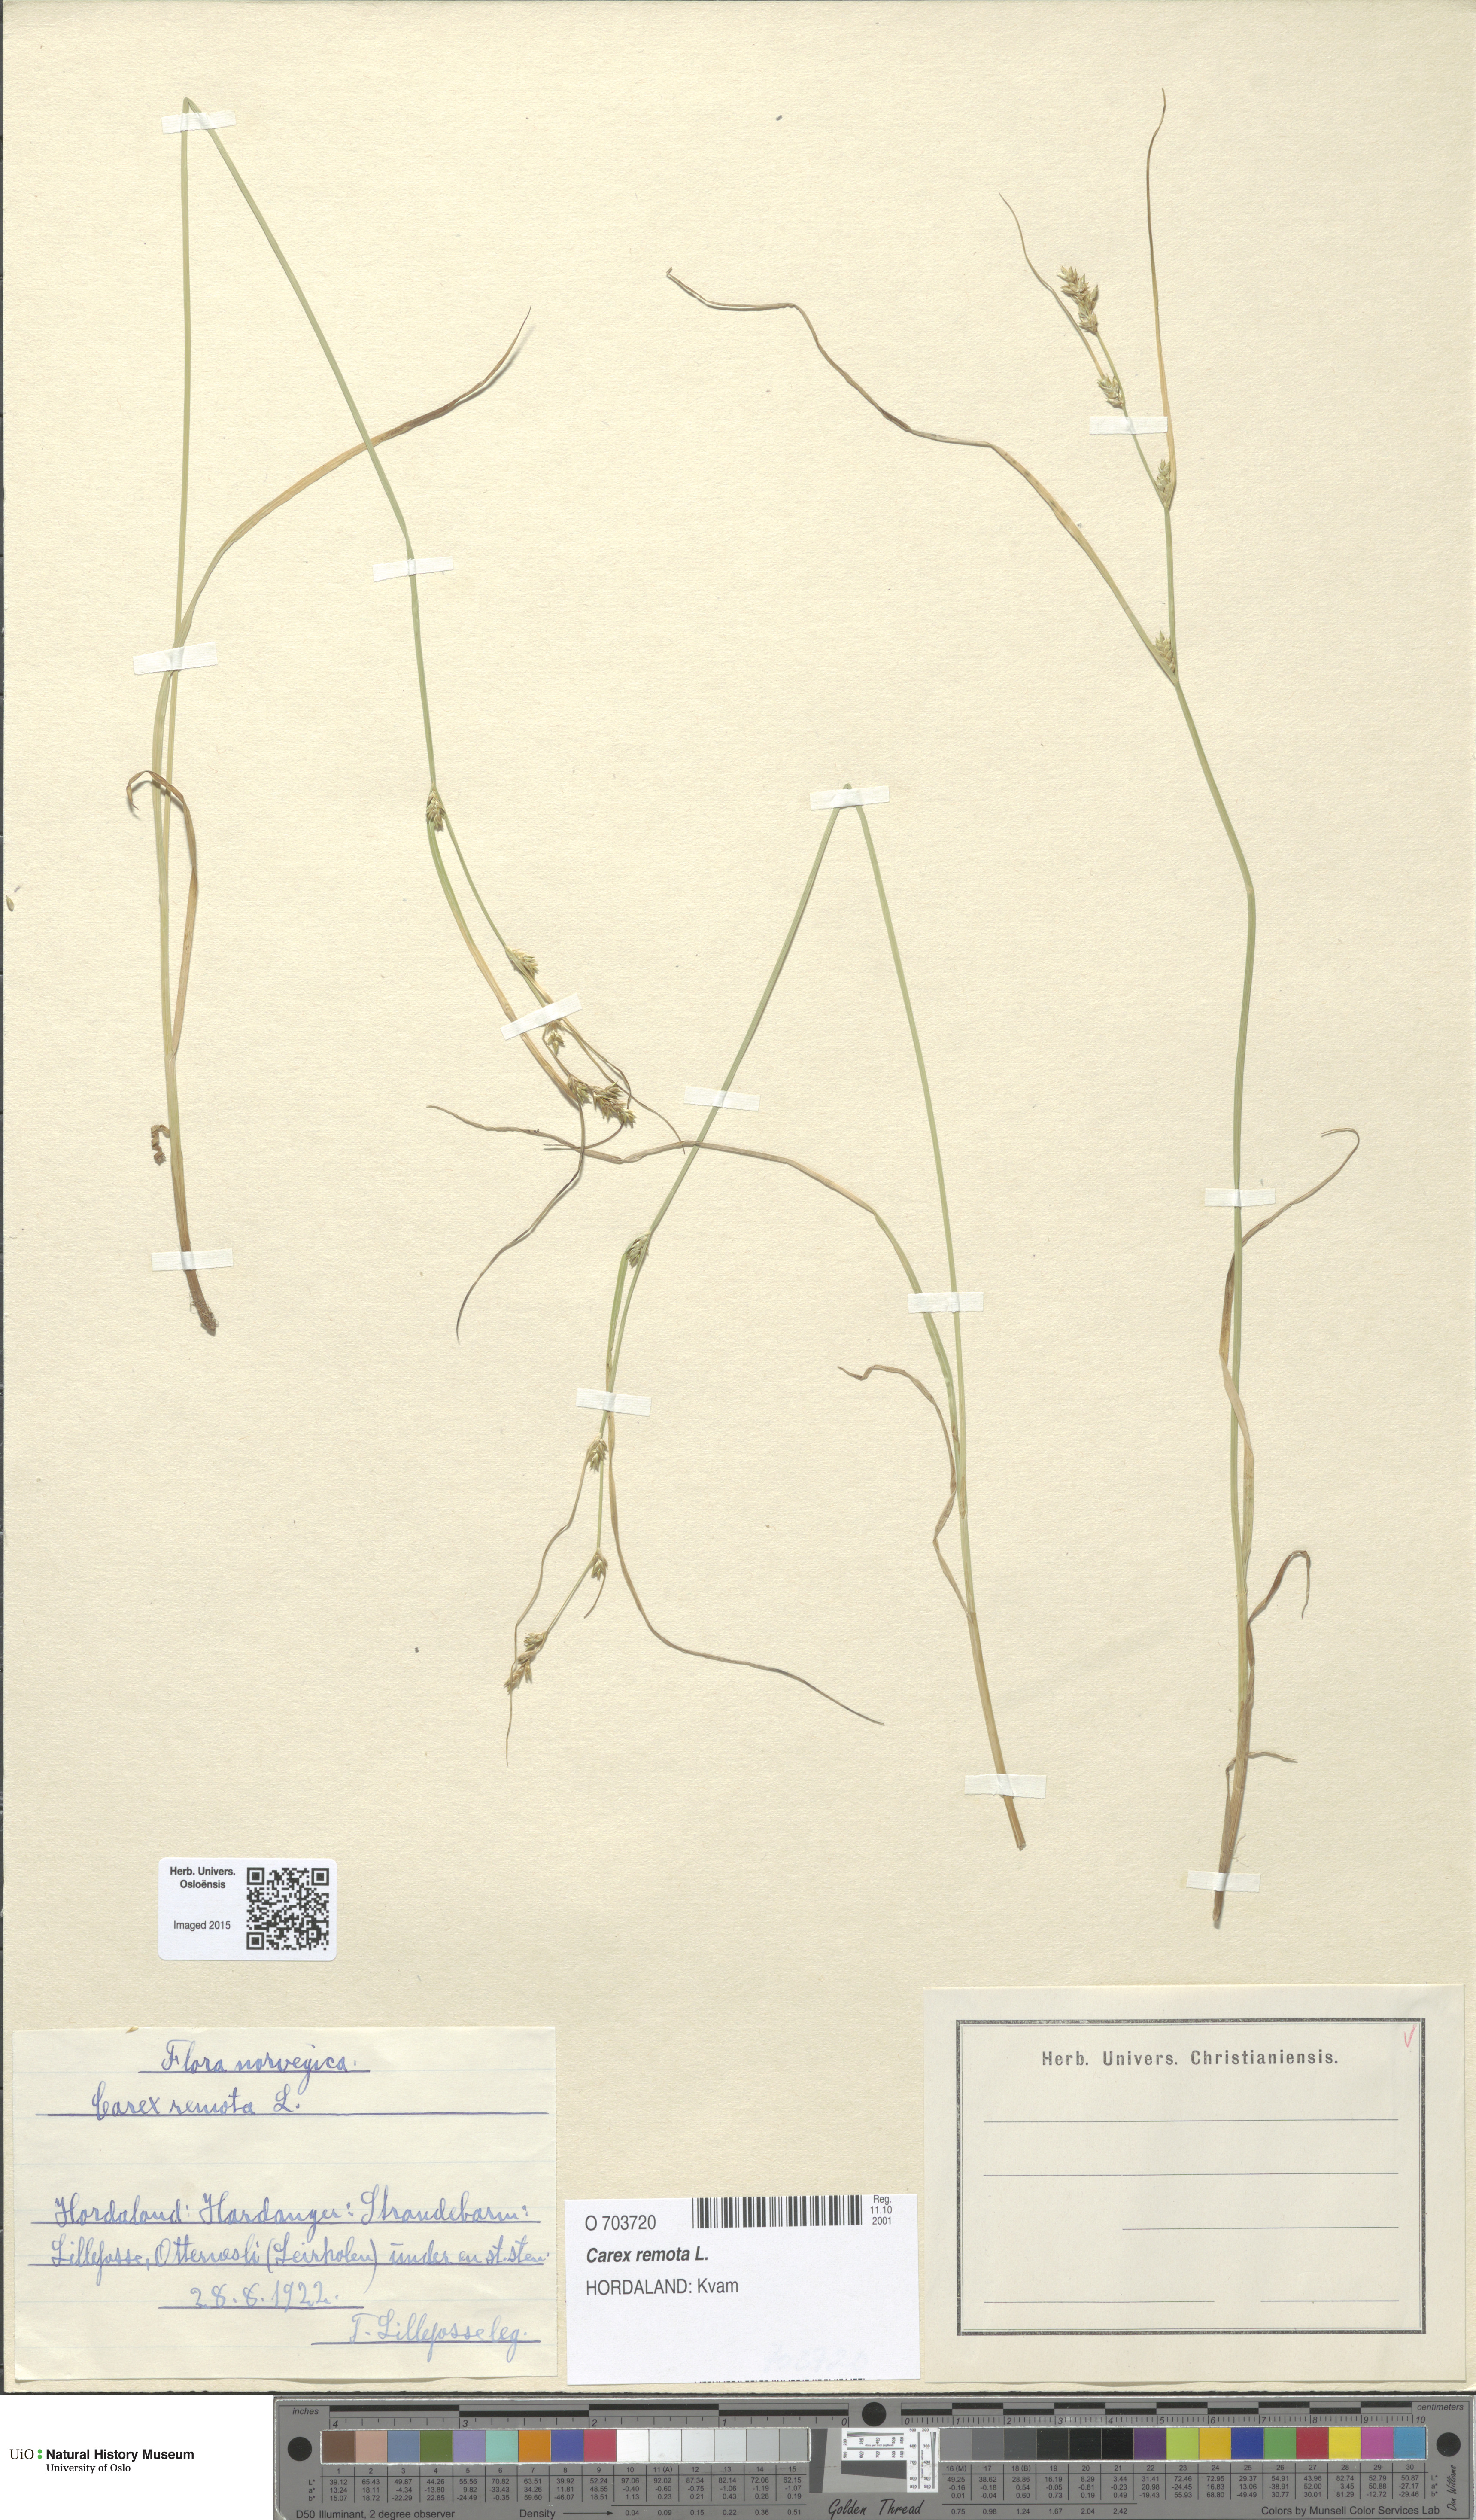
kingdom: Plantae
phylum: Tracheophyta
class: Liliopsida
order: Poales
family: Cyperaceae
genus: Carex
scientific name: Carex remota
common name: Remote sedge
